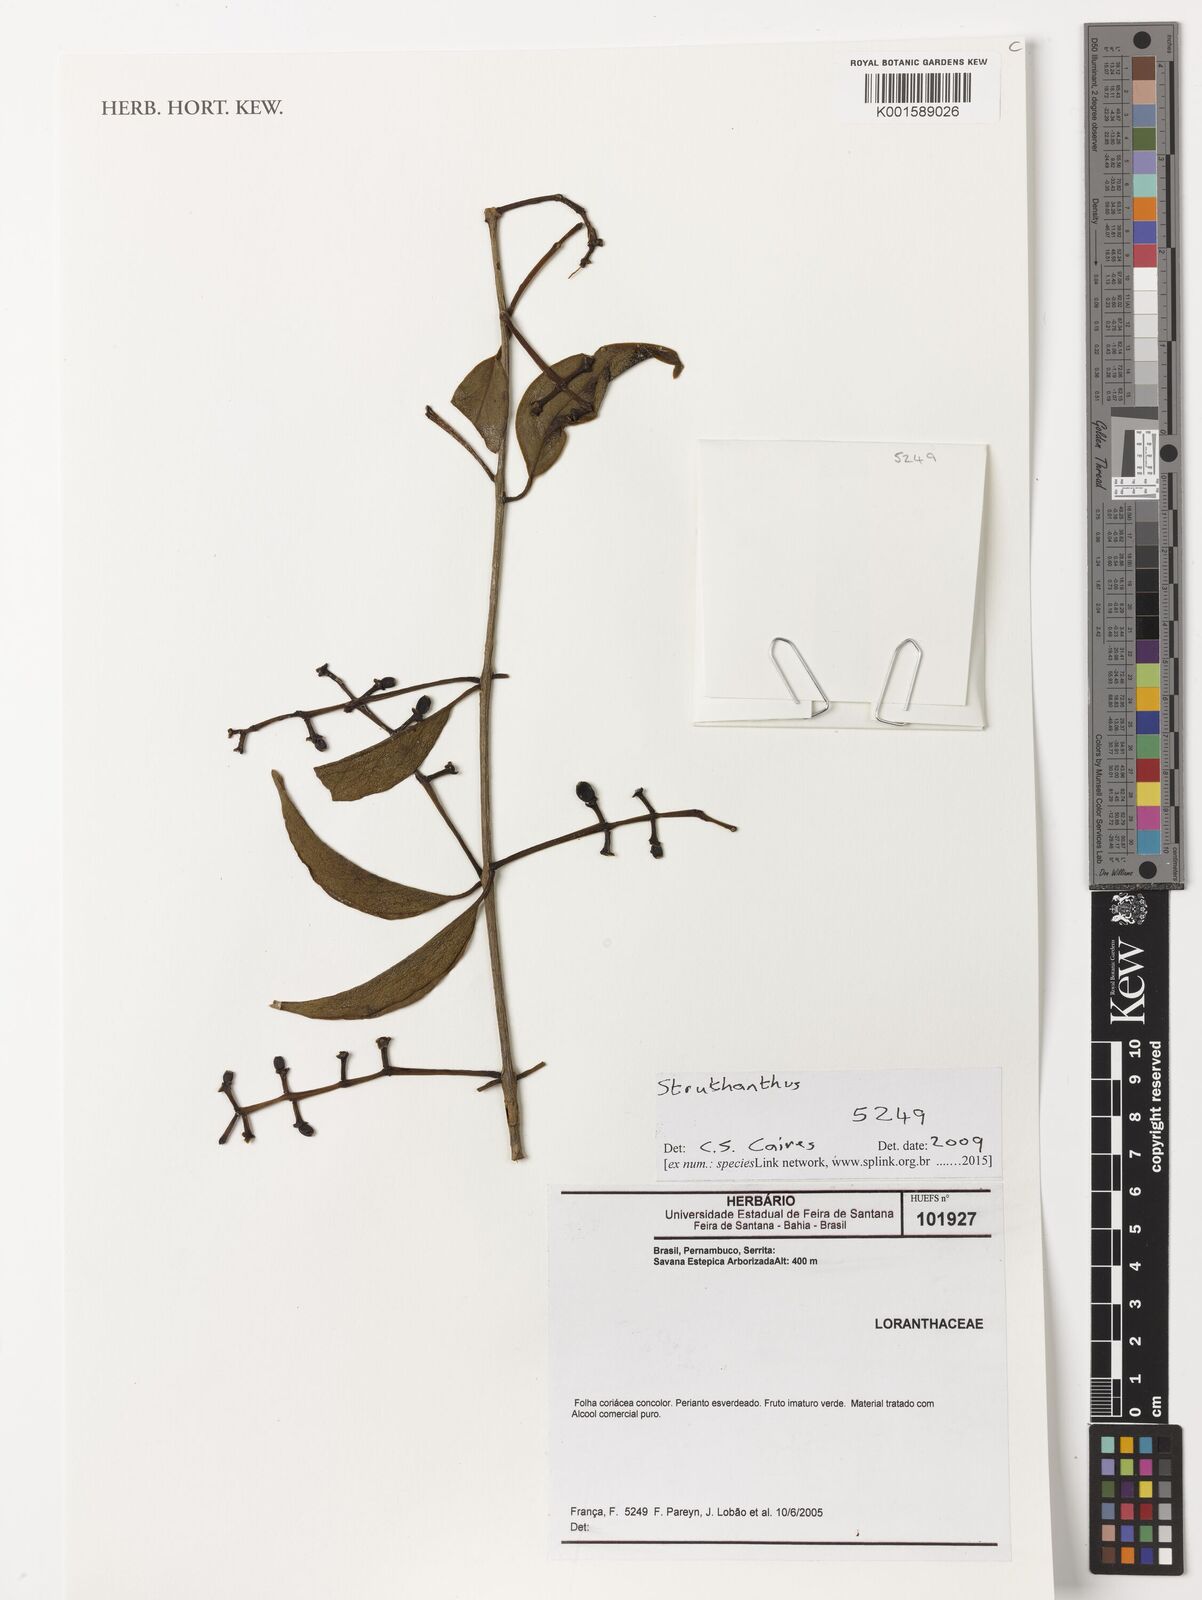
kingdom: Plantae
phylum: Tracheophyta
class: Magnoliopsida
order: Santalales
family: Loranthaceae
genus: Struthanthus
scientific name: Struthanthus
